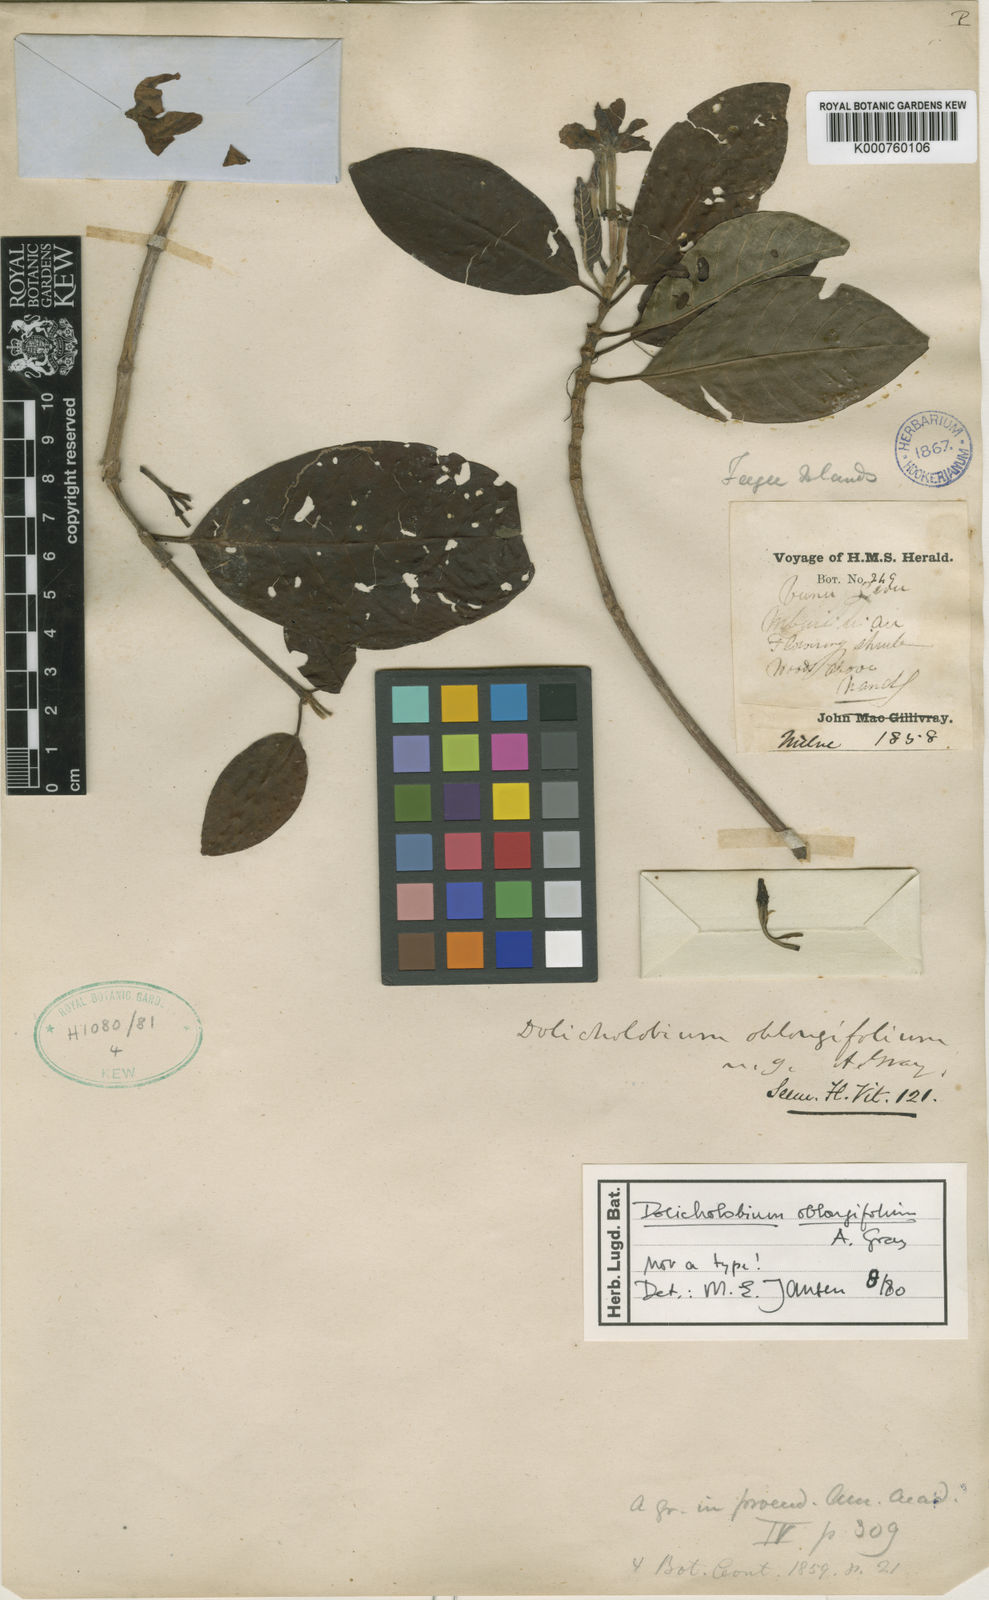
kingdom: Plantae
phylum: Tracheophyta
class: Magnoliopsida
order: Gentianales
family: Rubiaceae
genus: Dolicholobium
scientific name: Dolicholobium oblongifolium
